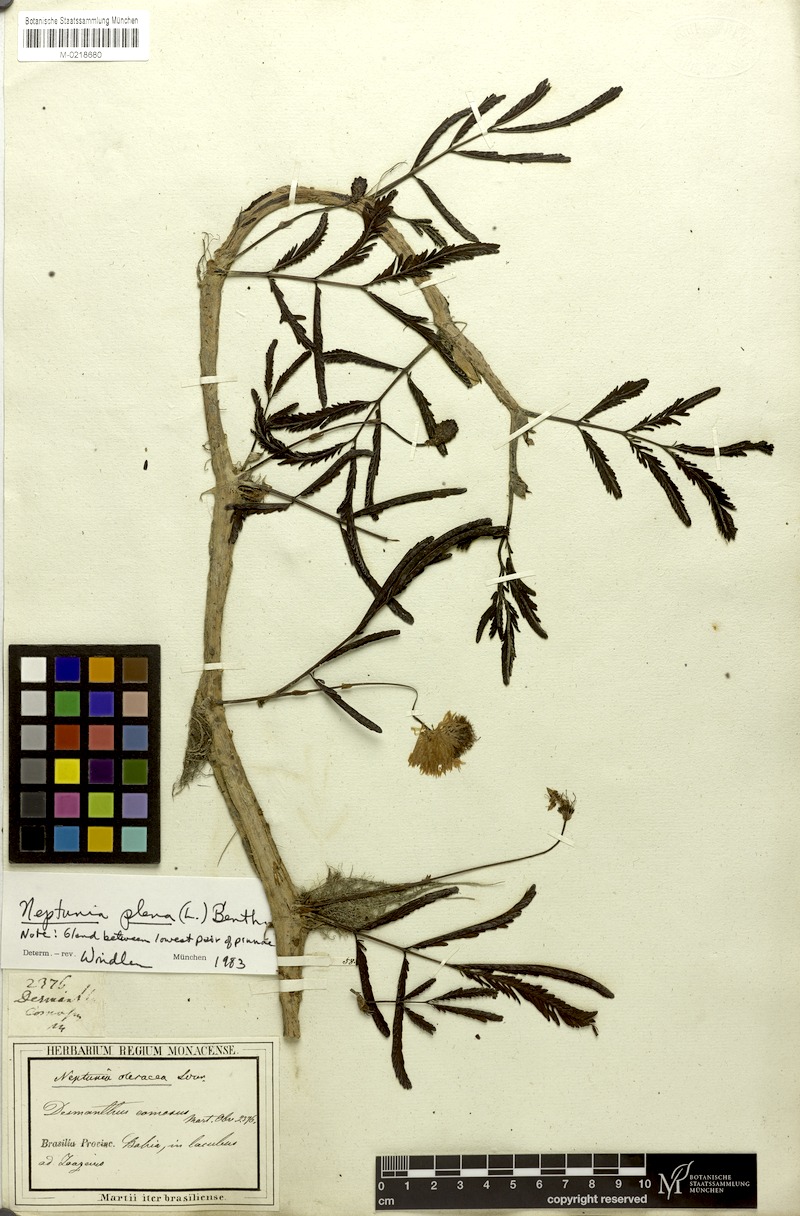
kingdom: Plantae
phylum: Tracheophyta
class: Magnoliopsida
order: Fabales
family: Fabaceae
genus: Neptunia
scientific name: Neptunia plena
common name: Dead and awake
